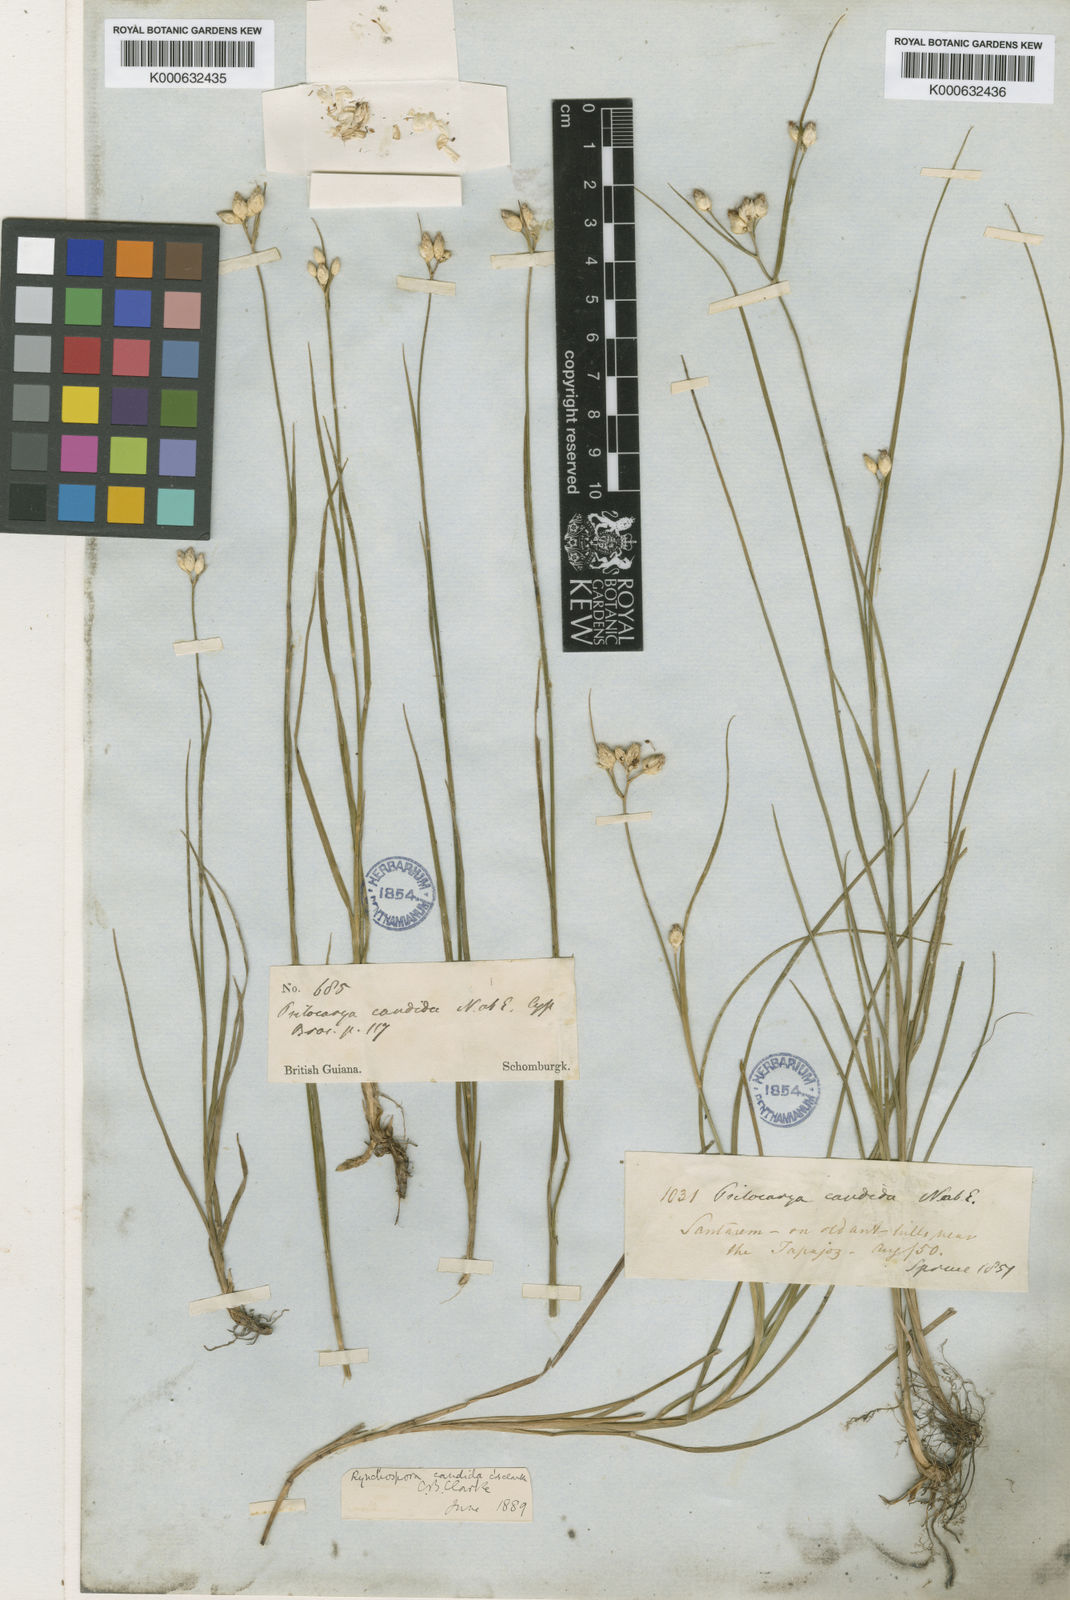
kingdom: Plantae
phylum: Tracheophyta
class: Liliopsida
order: Poales
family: Cyperaceae
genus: Rhynchospora
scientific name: Rhynchospora
